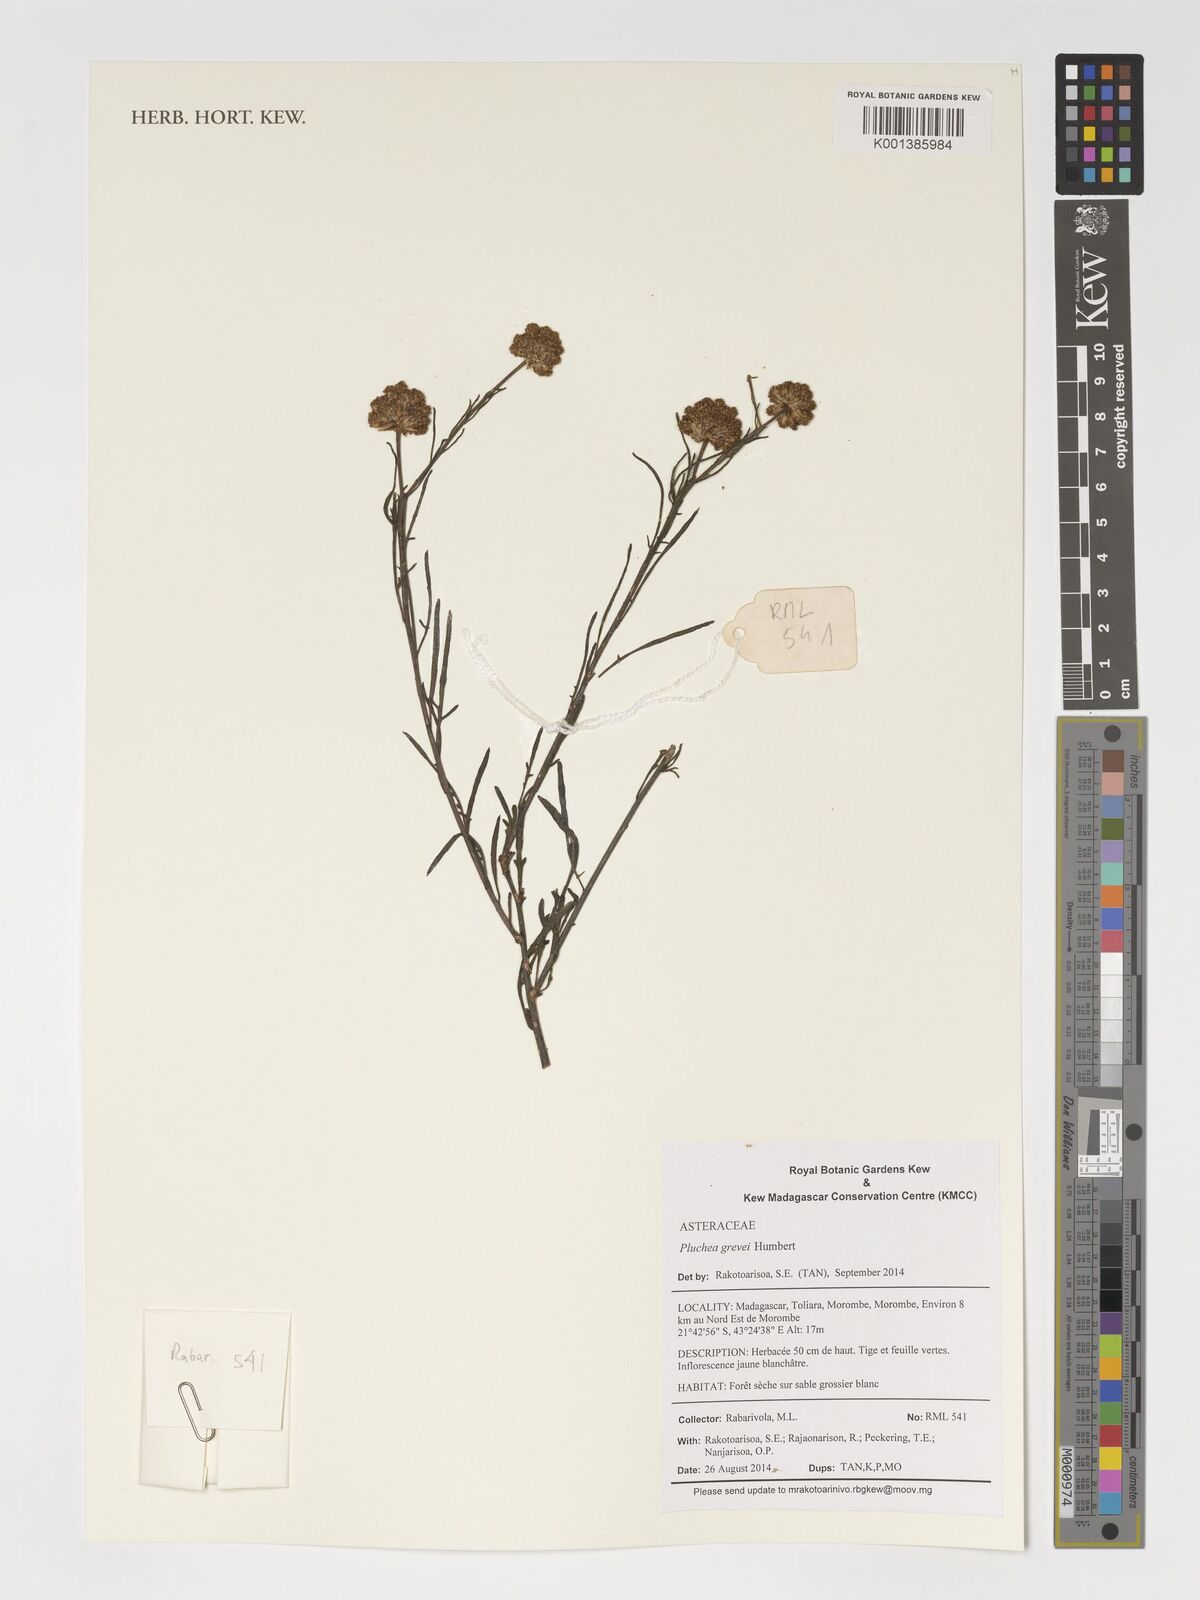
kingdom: Plantae
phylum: Tracheophyta
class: Magnoliopsida
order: Asterales
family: Asteraceae
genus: Pluchea
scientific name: Pluchea grevei
